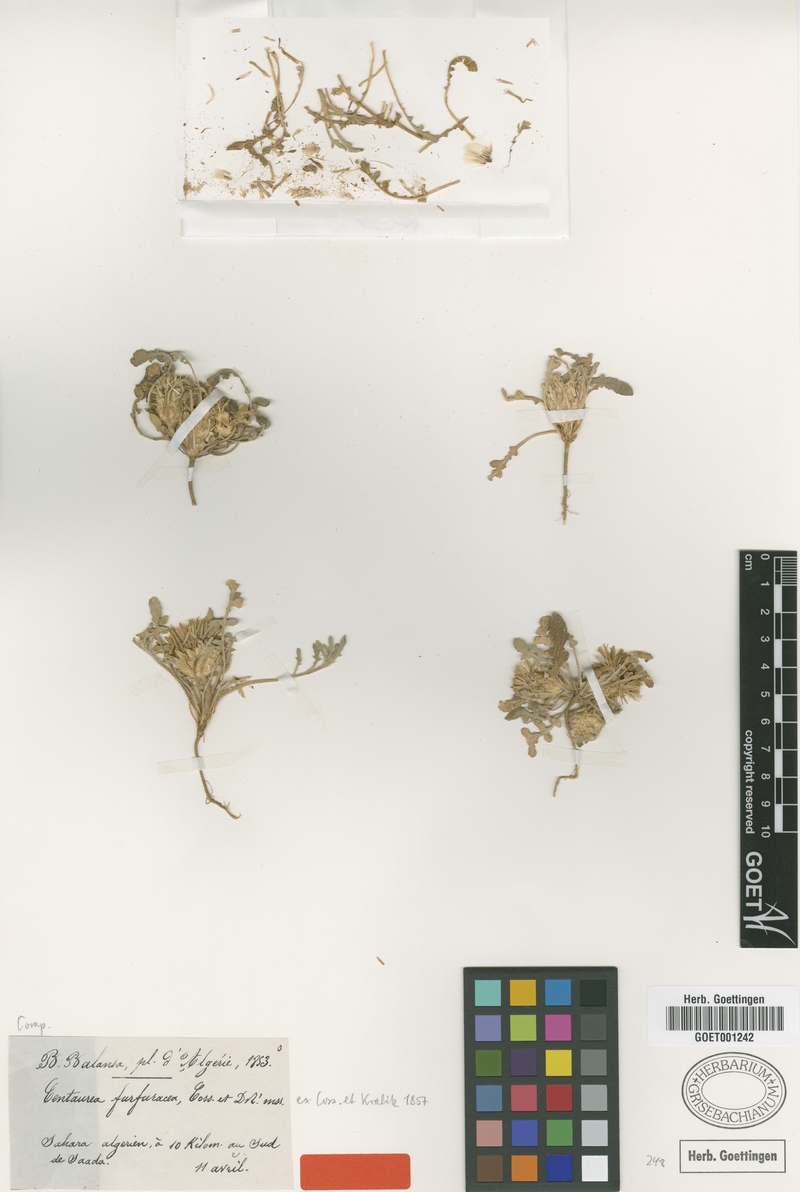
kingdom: Plantae
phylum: Tracheophyta
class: Magnoliopsida
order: Asterales
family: Asteraceae
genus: Centaurea
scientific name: Centaurea furfuracea
